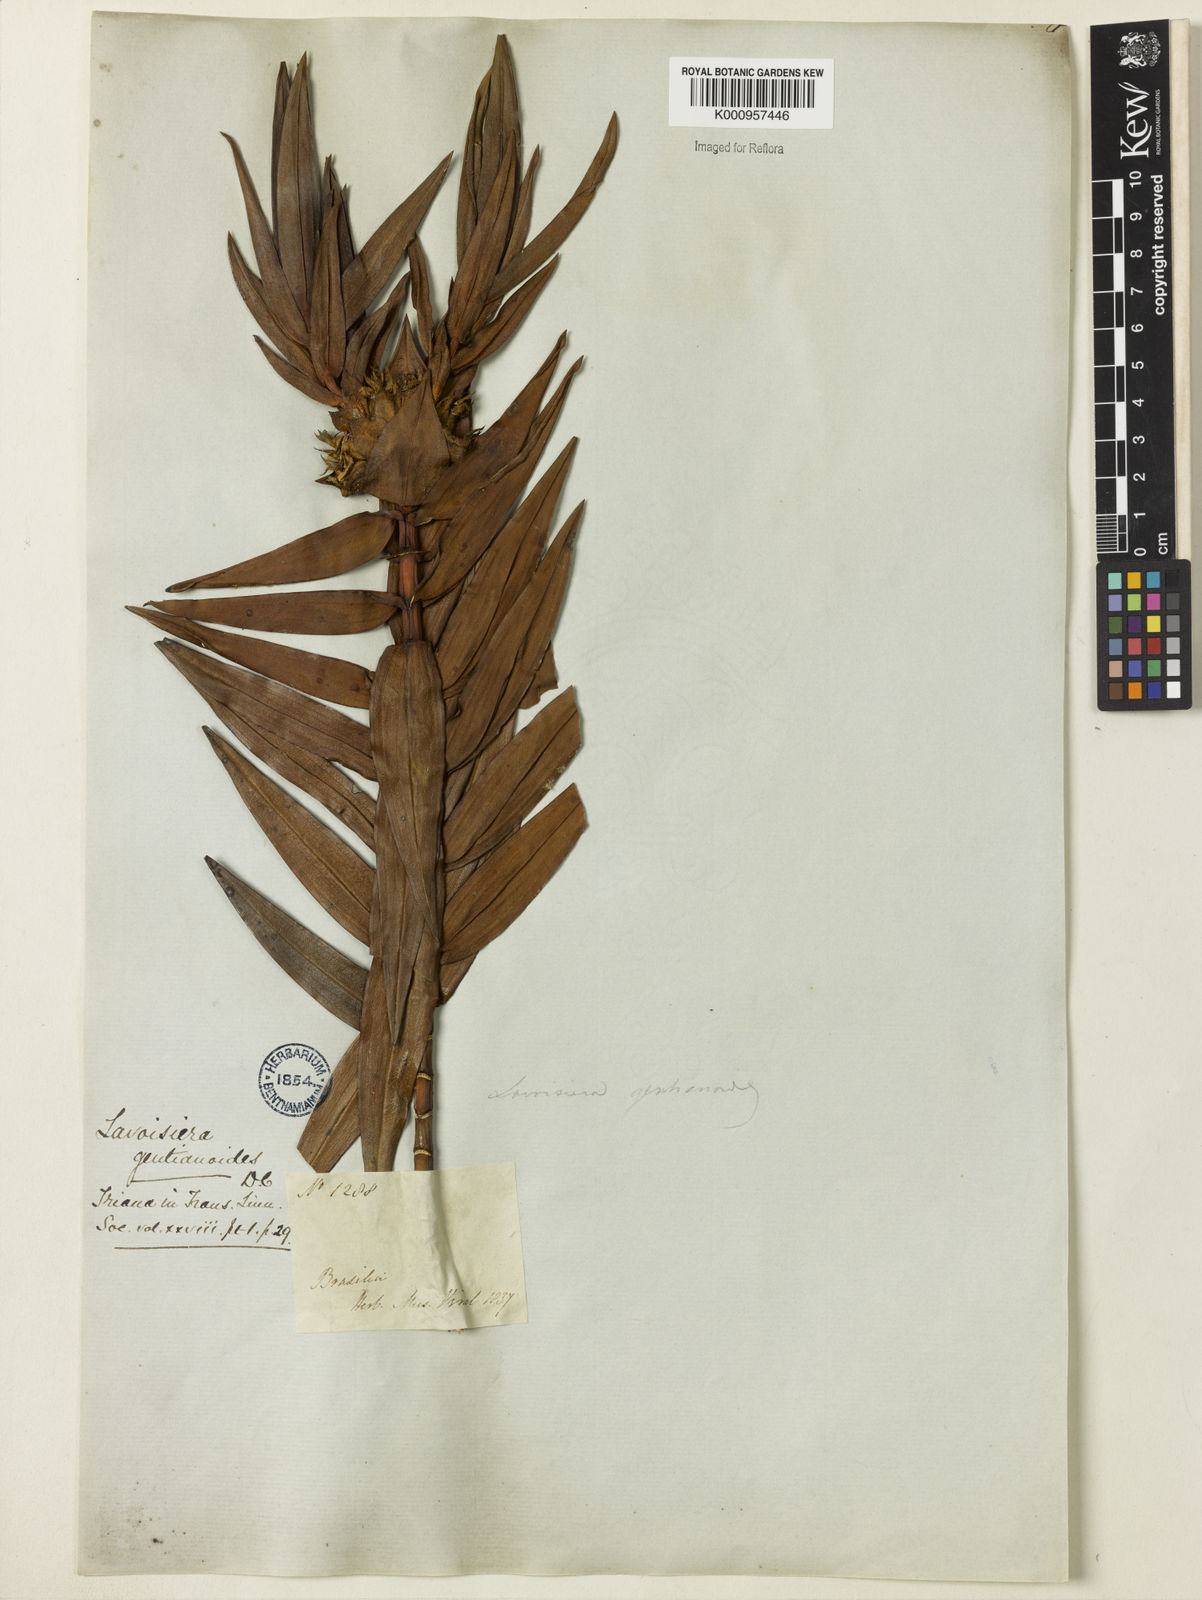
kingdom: Plantae
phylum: Tracheophyta
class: Magnoliopsida
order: Myrtales
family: Melastomataceae
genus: Microlicia
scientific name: Microlicia gentianoides
